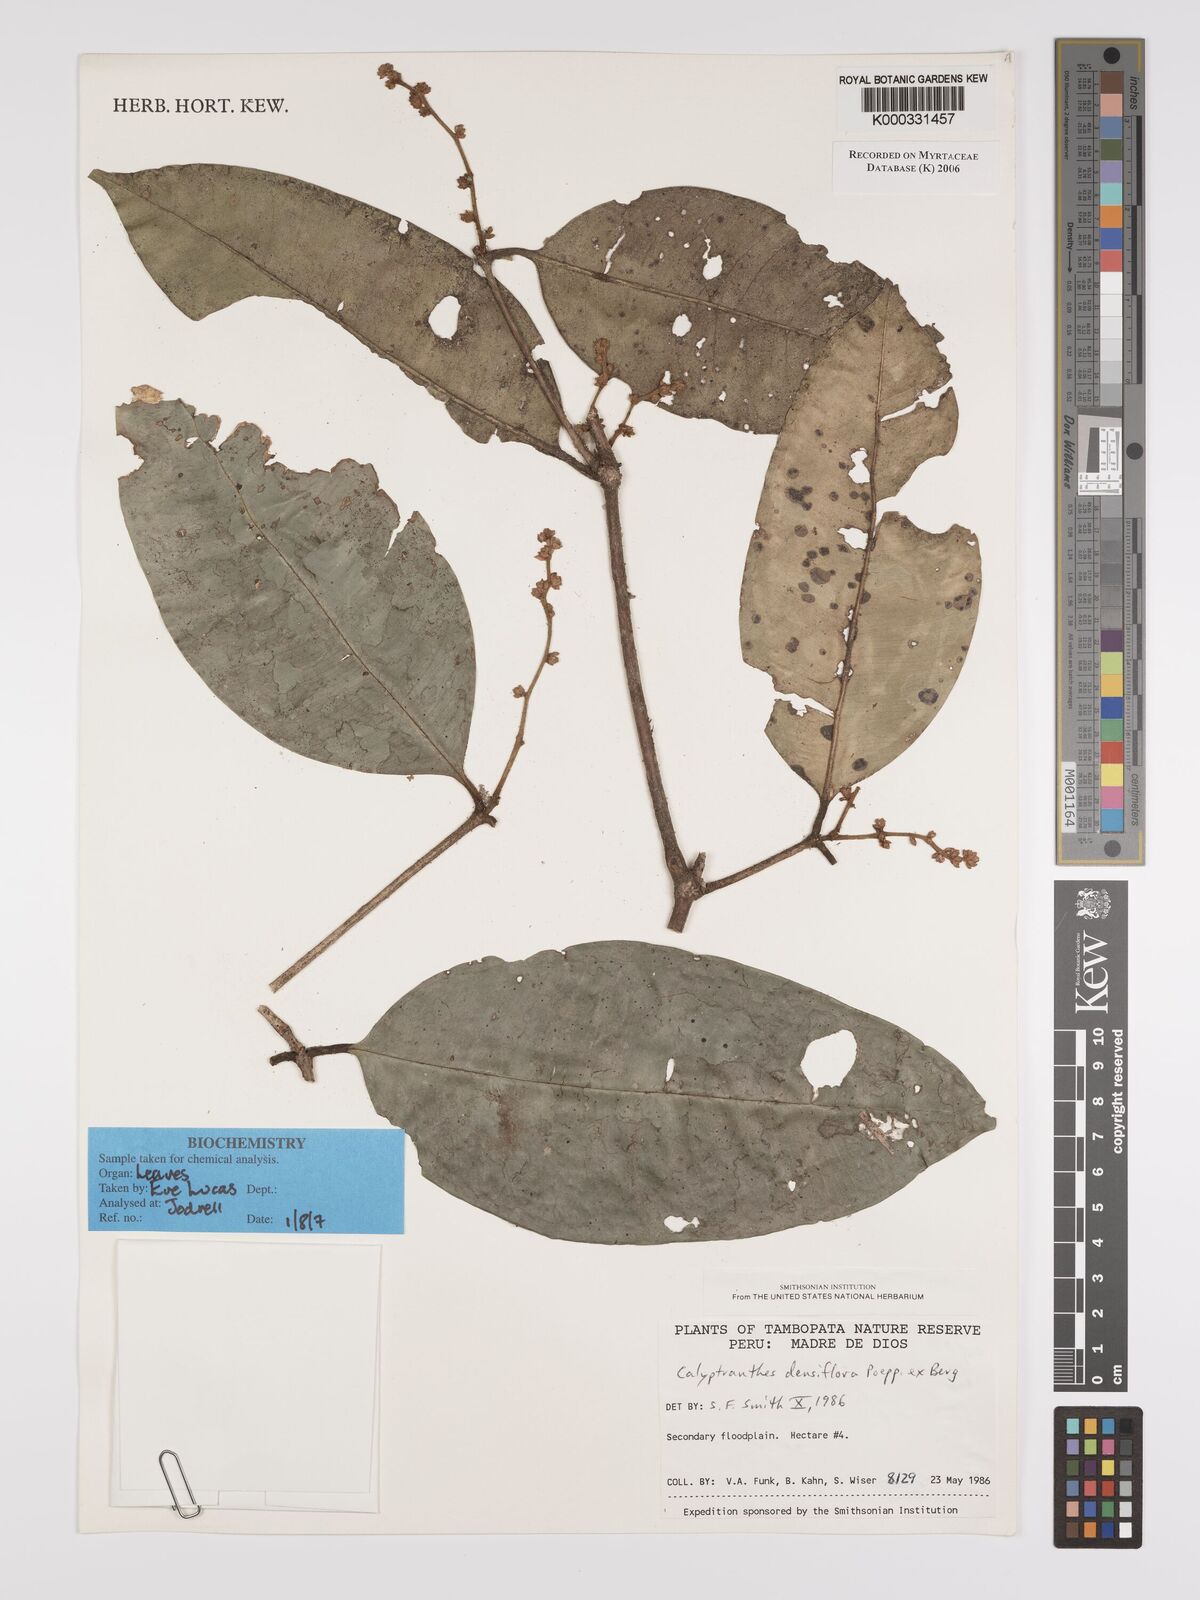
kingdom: Plantae
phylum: Tracheophyta
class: Magnoliopsida
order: Myrtales
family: Myrtaceae
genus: Myrcia
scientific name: Myrcia densiflora
